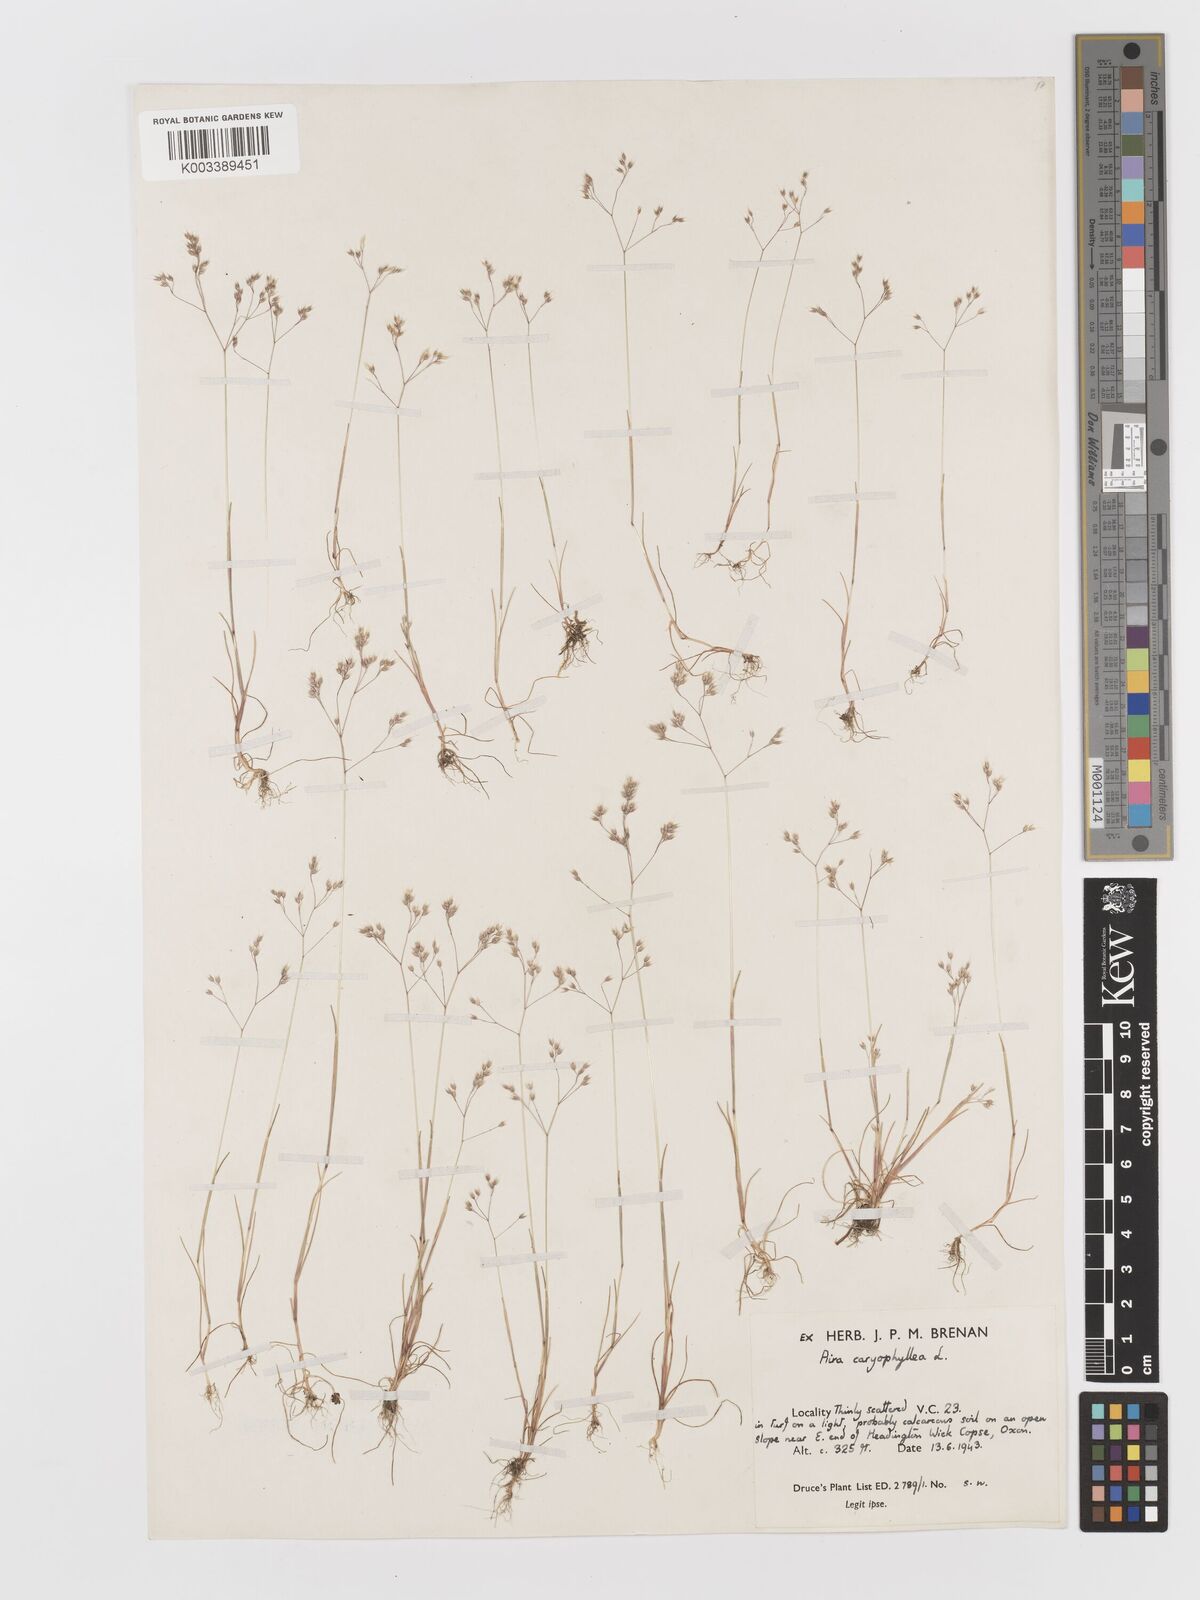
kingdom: Plantae
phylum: Tracheophyta
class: Liliopsida
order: Poales
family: Poaceae
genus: Aira
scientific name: Aira caryophyllea
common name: Silver hairgrass
